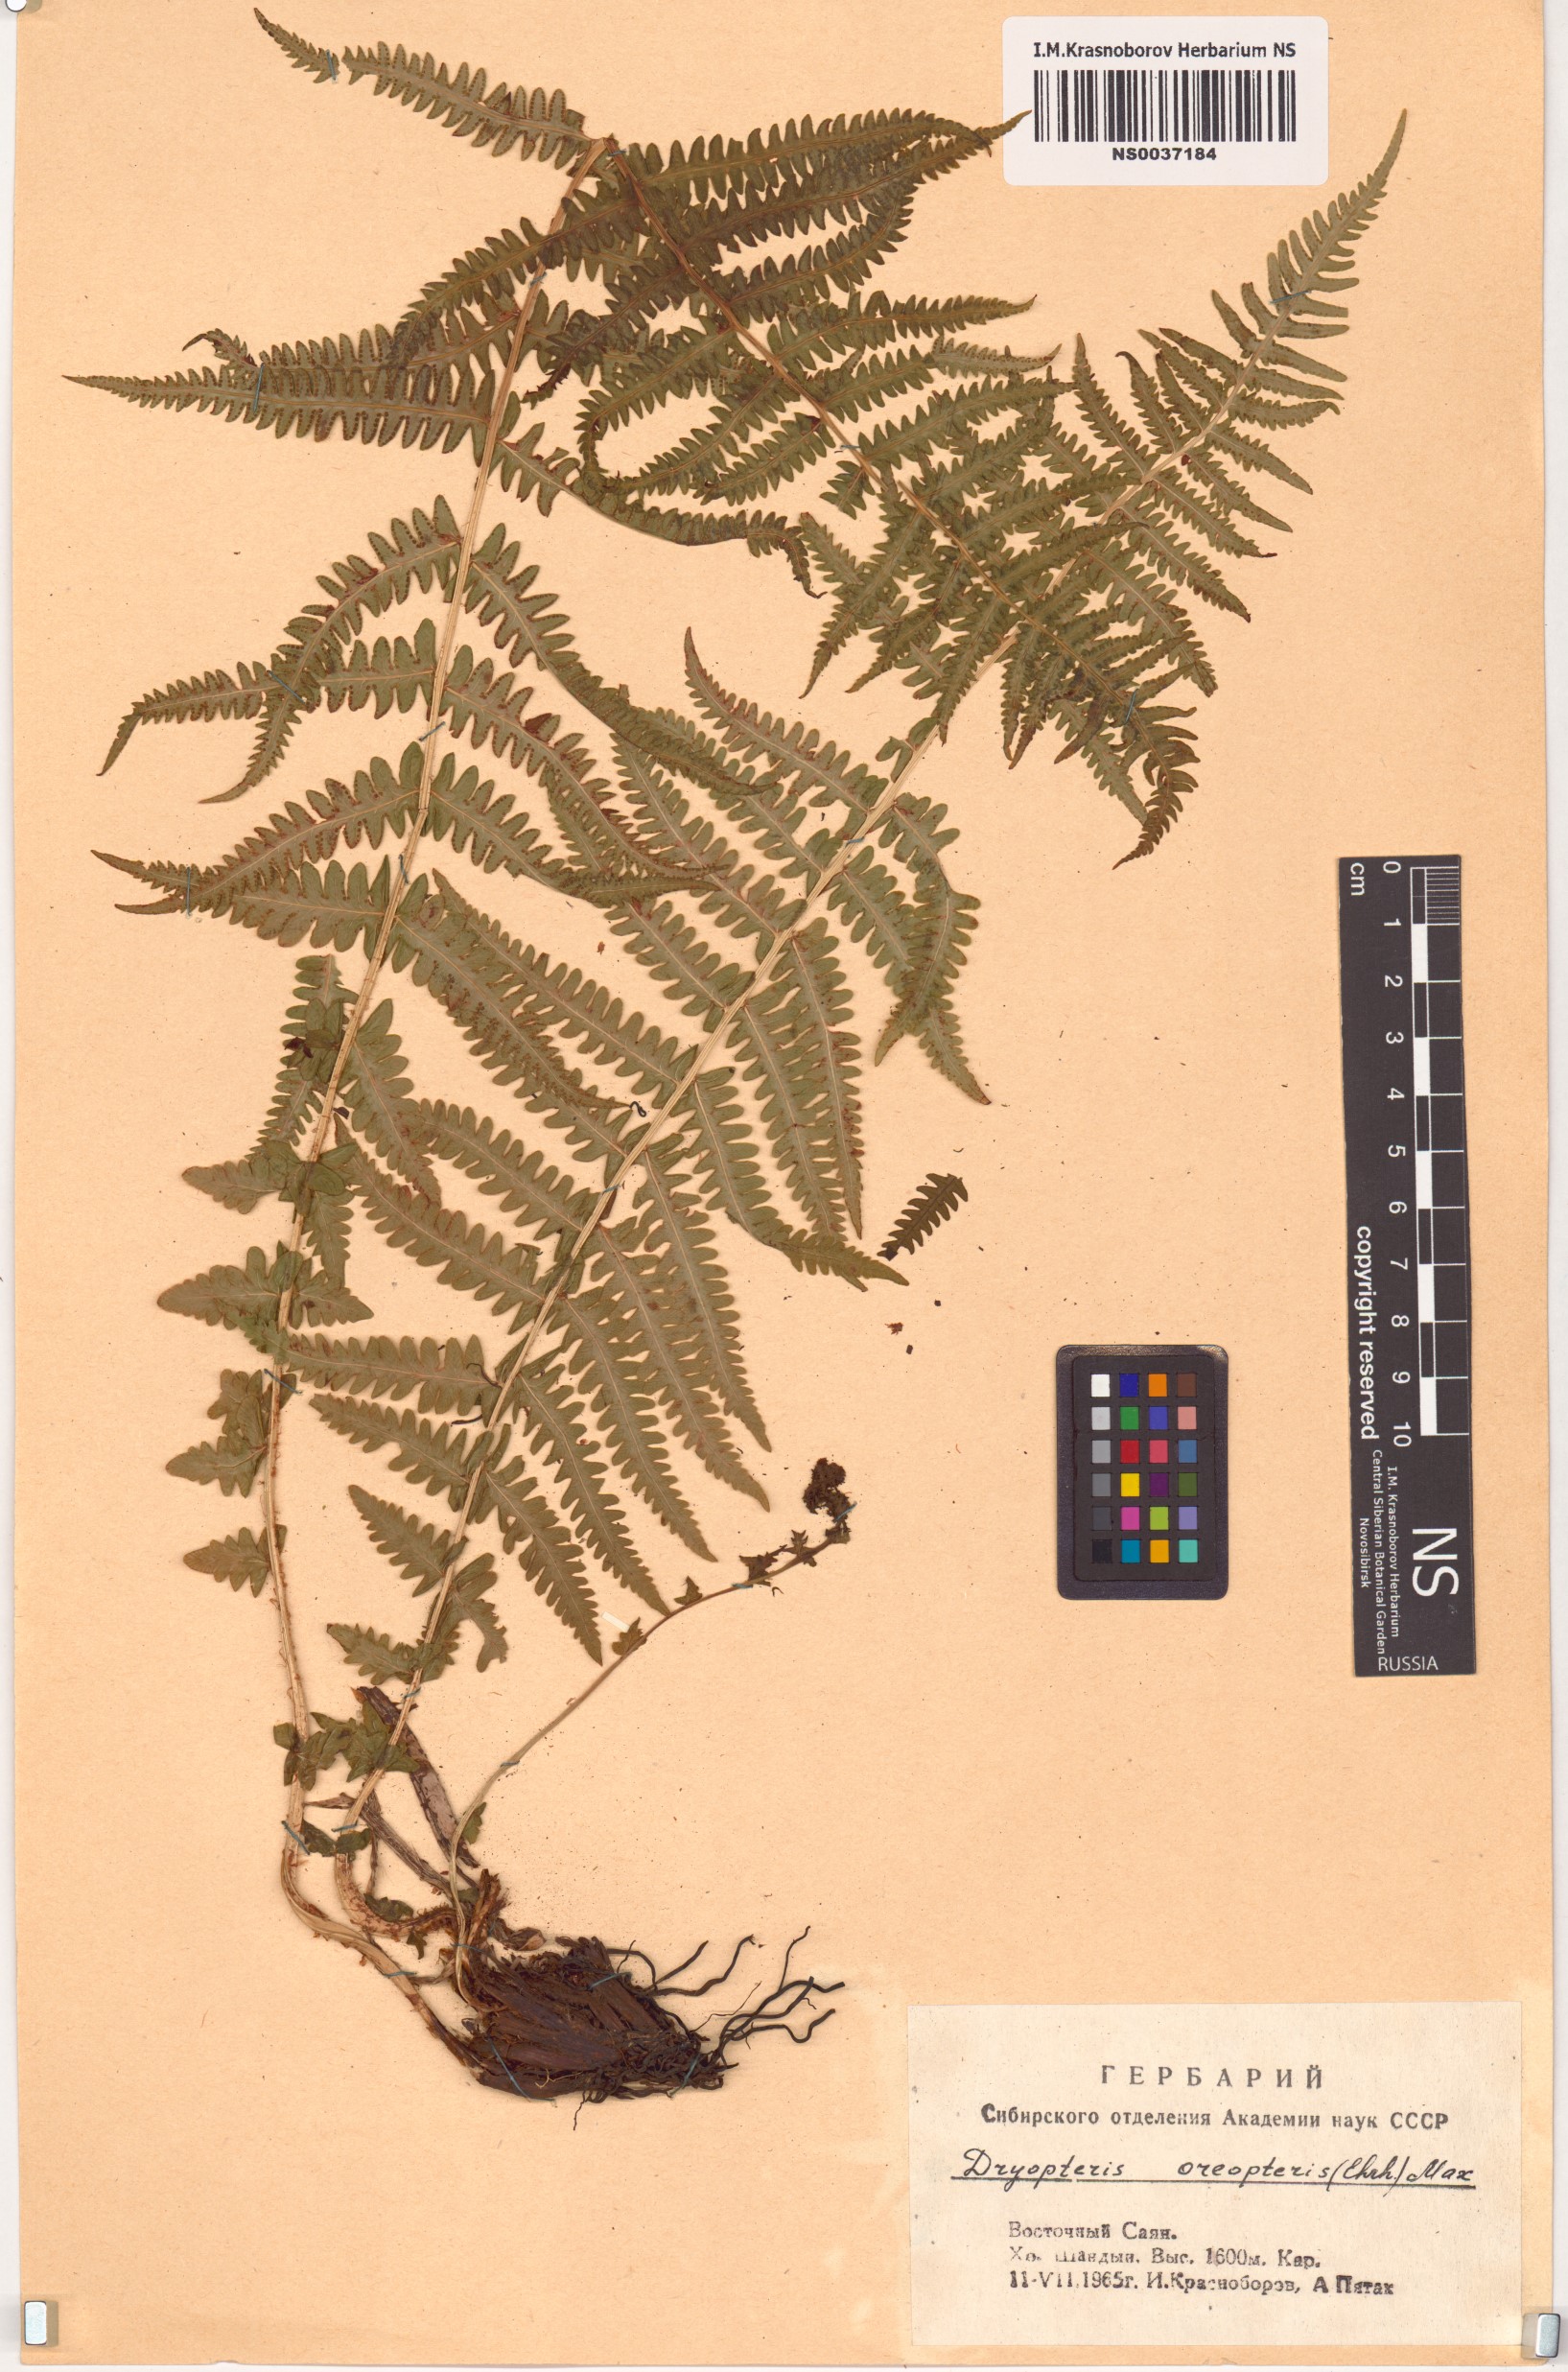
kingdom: Plantae
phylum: Tracheophyta
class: Polypodiopsida
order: Polypodiales
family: Thelypteridaceae
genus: Oreopteris
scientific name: Oreopteris limbosperma
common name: Lemon-scented fern
